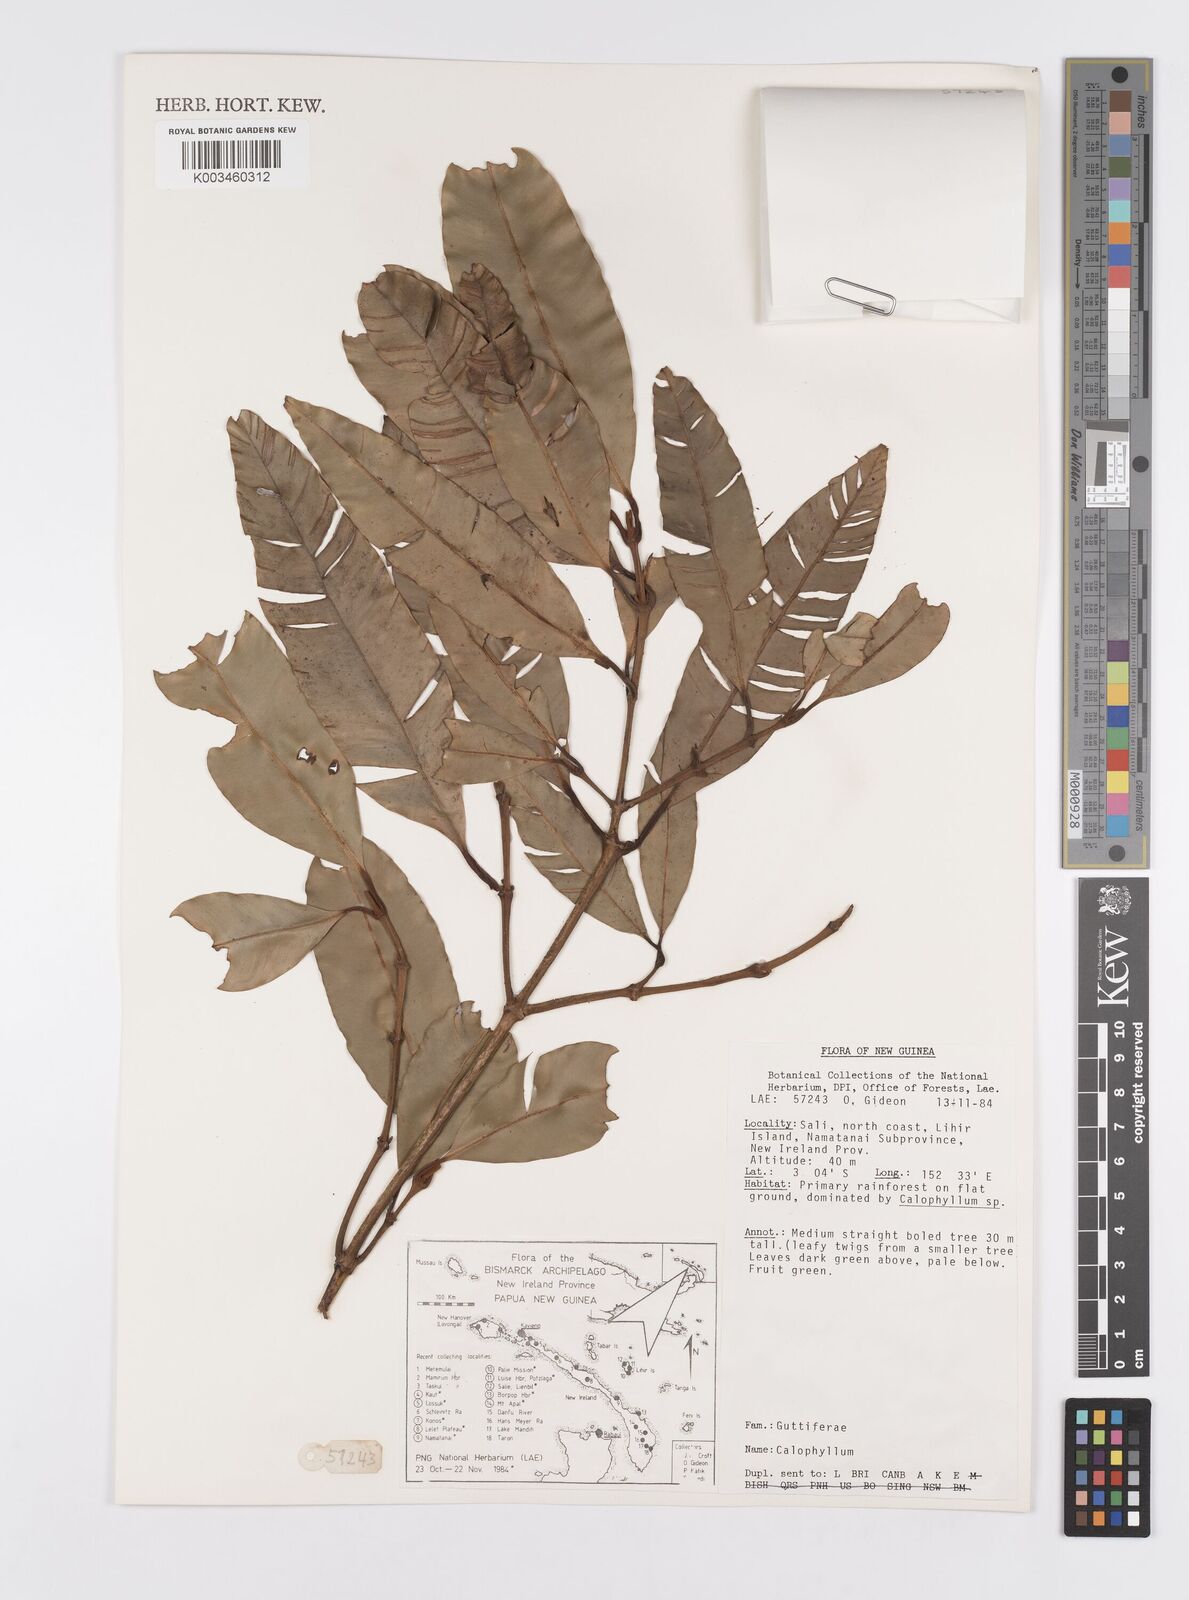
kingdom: Plantae
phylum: Tracheophyta
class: Magnoliopsida
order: Malpighiales
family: Calophyllaceae
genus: Calophyllum
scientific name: Calophyllum
